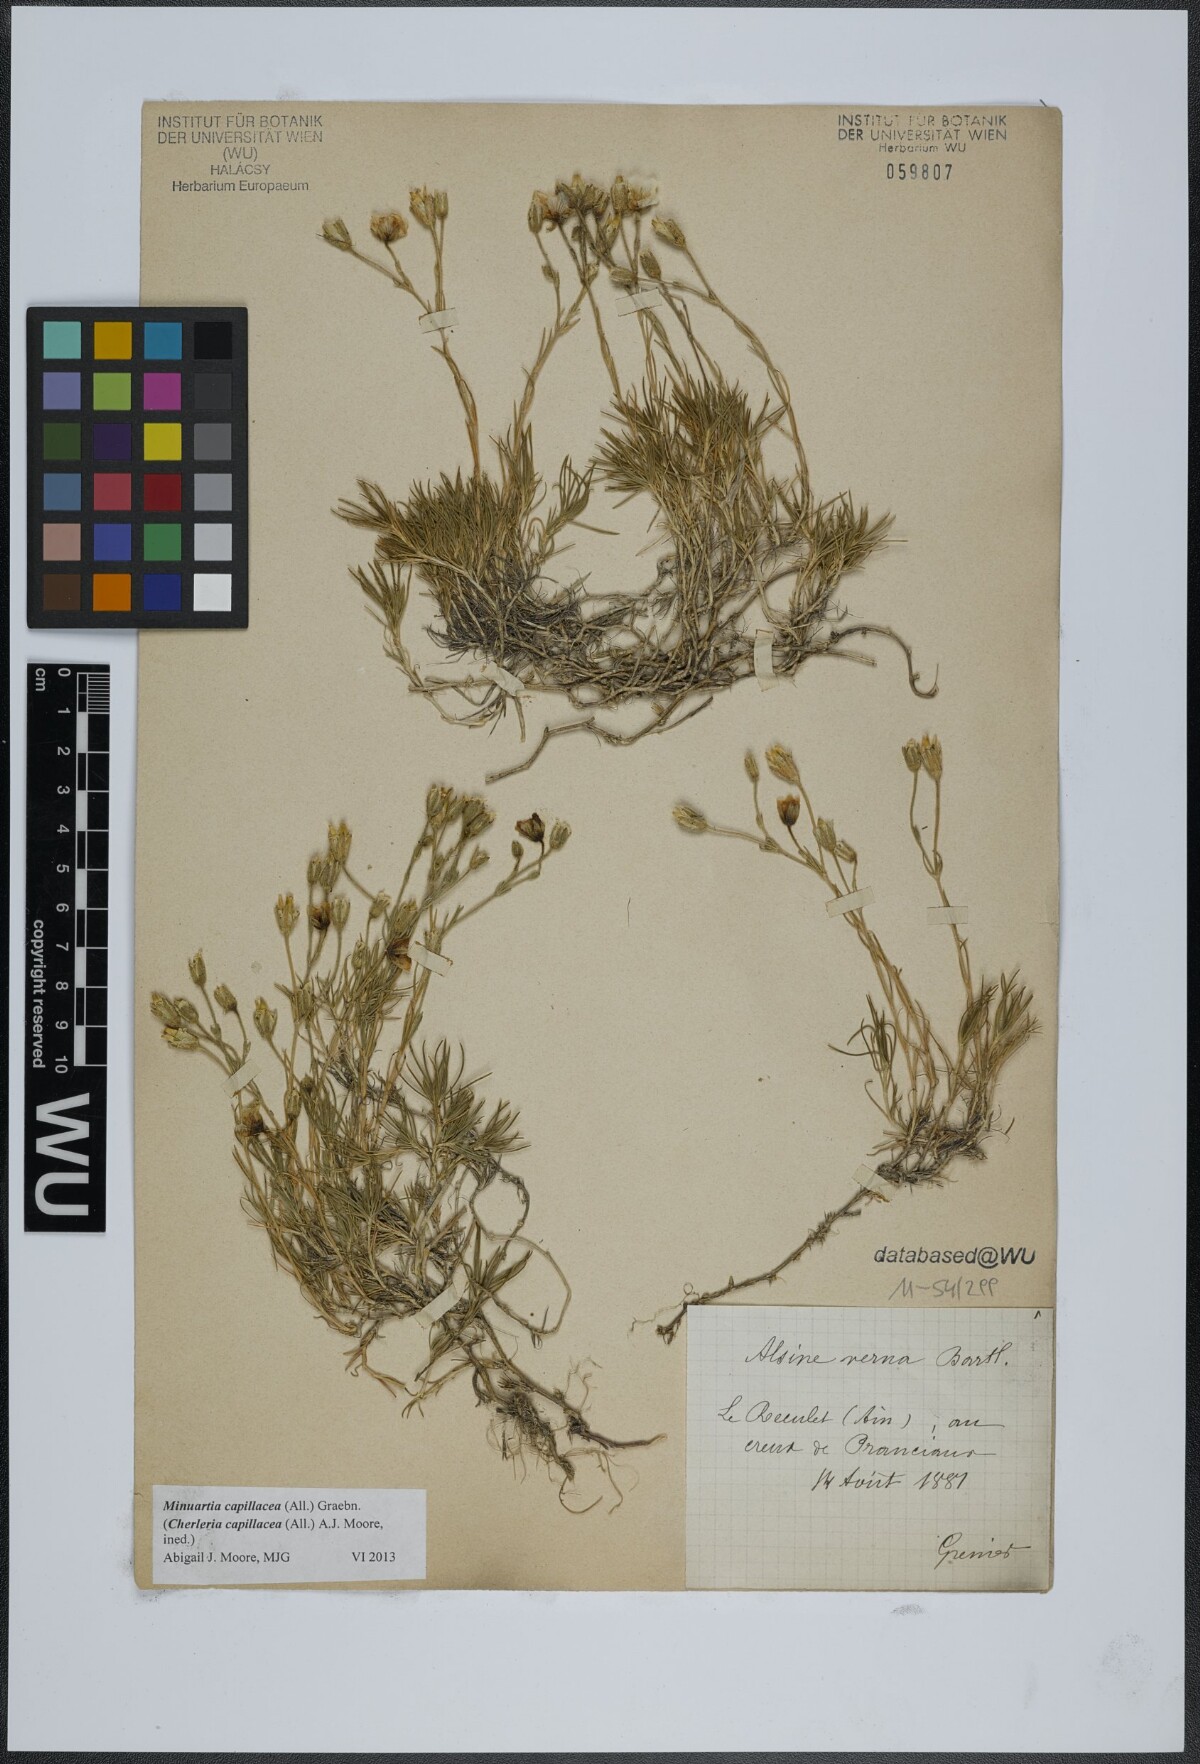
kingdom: Plantae
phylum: Tracheophyta
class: Magnoliopsida
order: Caryophyllales
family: Caryophyllaceae
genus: Cherleria
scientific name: Cherleria capillacea
